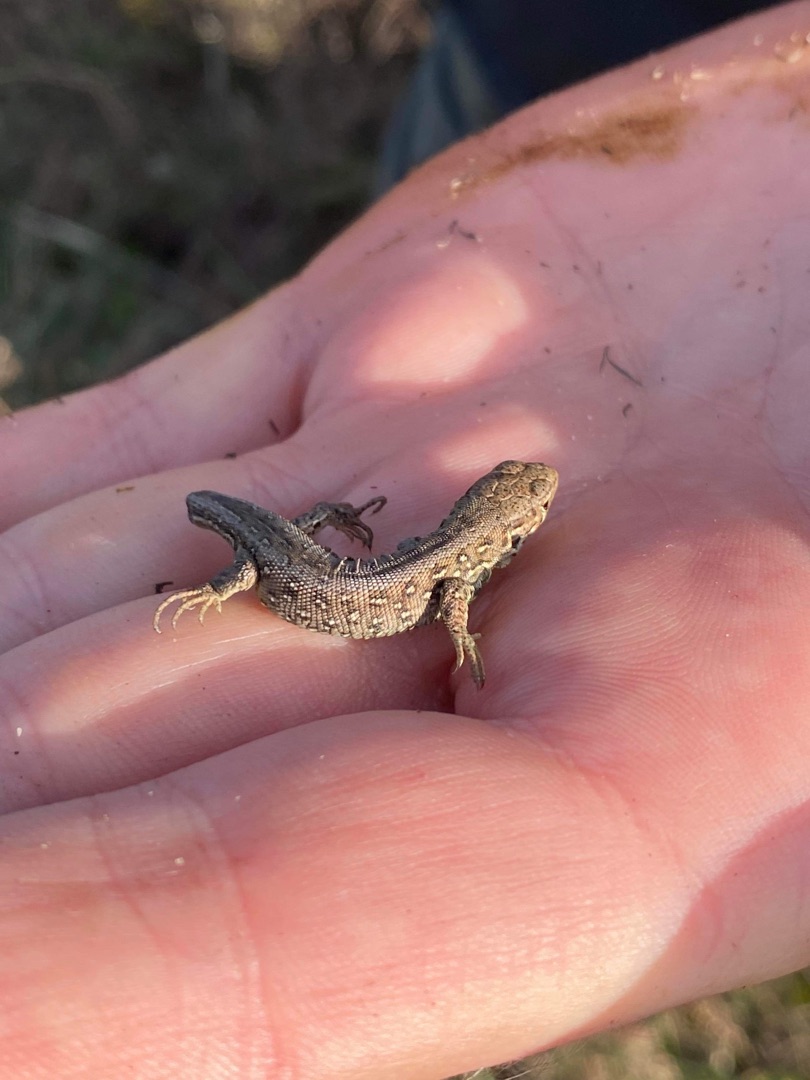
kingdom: Animalia
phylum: Chordata
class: Squamata
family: Lacertidae
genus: Lacerta
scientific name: Lacerta agilis
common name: Markfirben
